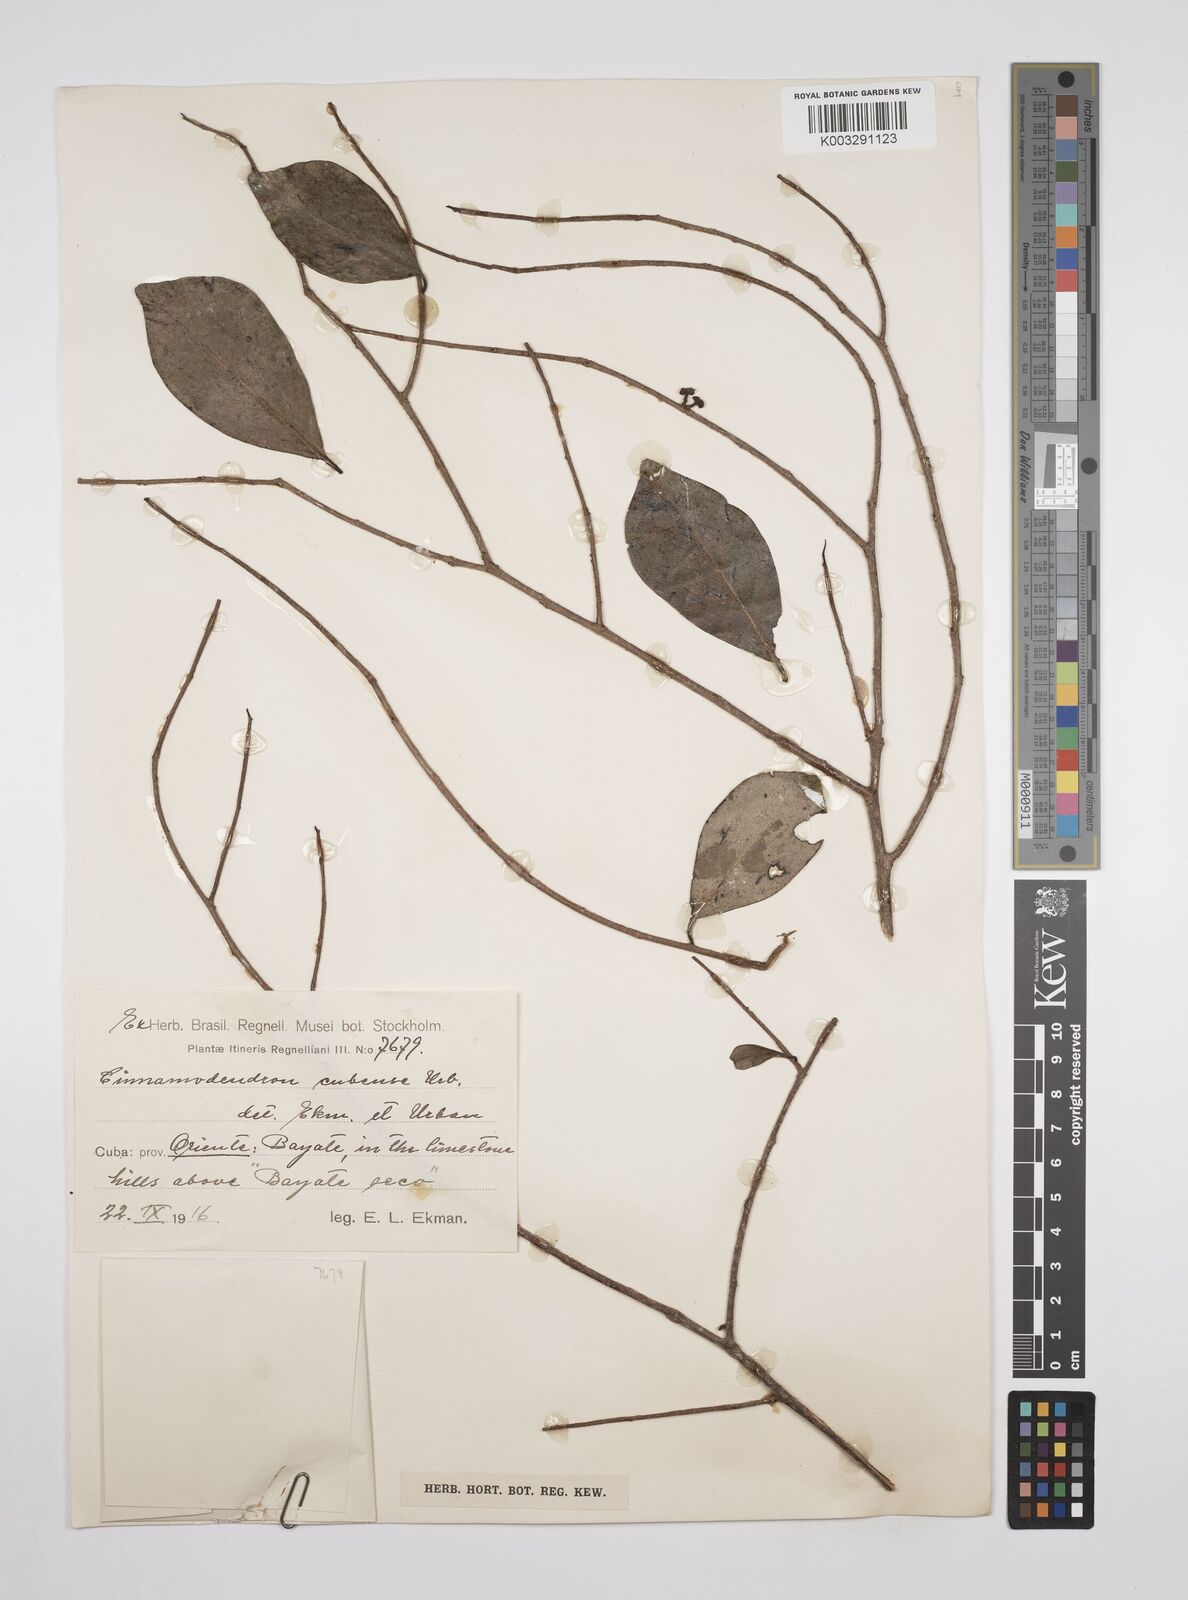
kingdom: Plantae
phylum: Tracheophyta
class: Magnoliopsida
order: Canellales
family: Canellaceae
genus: Cinnamodendron
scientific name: Cinnamodendron cubense
